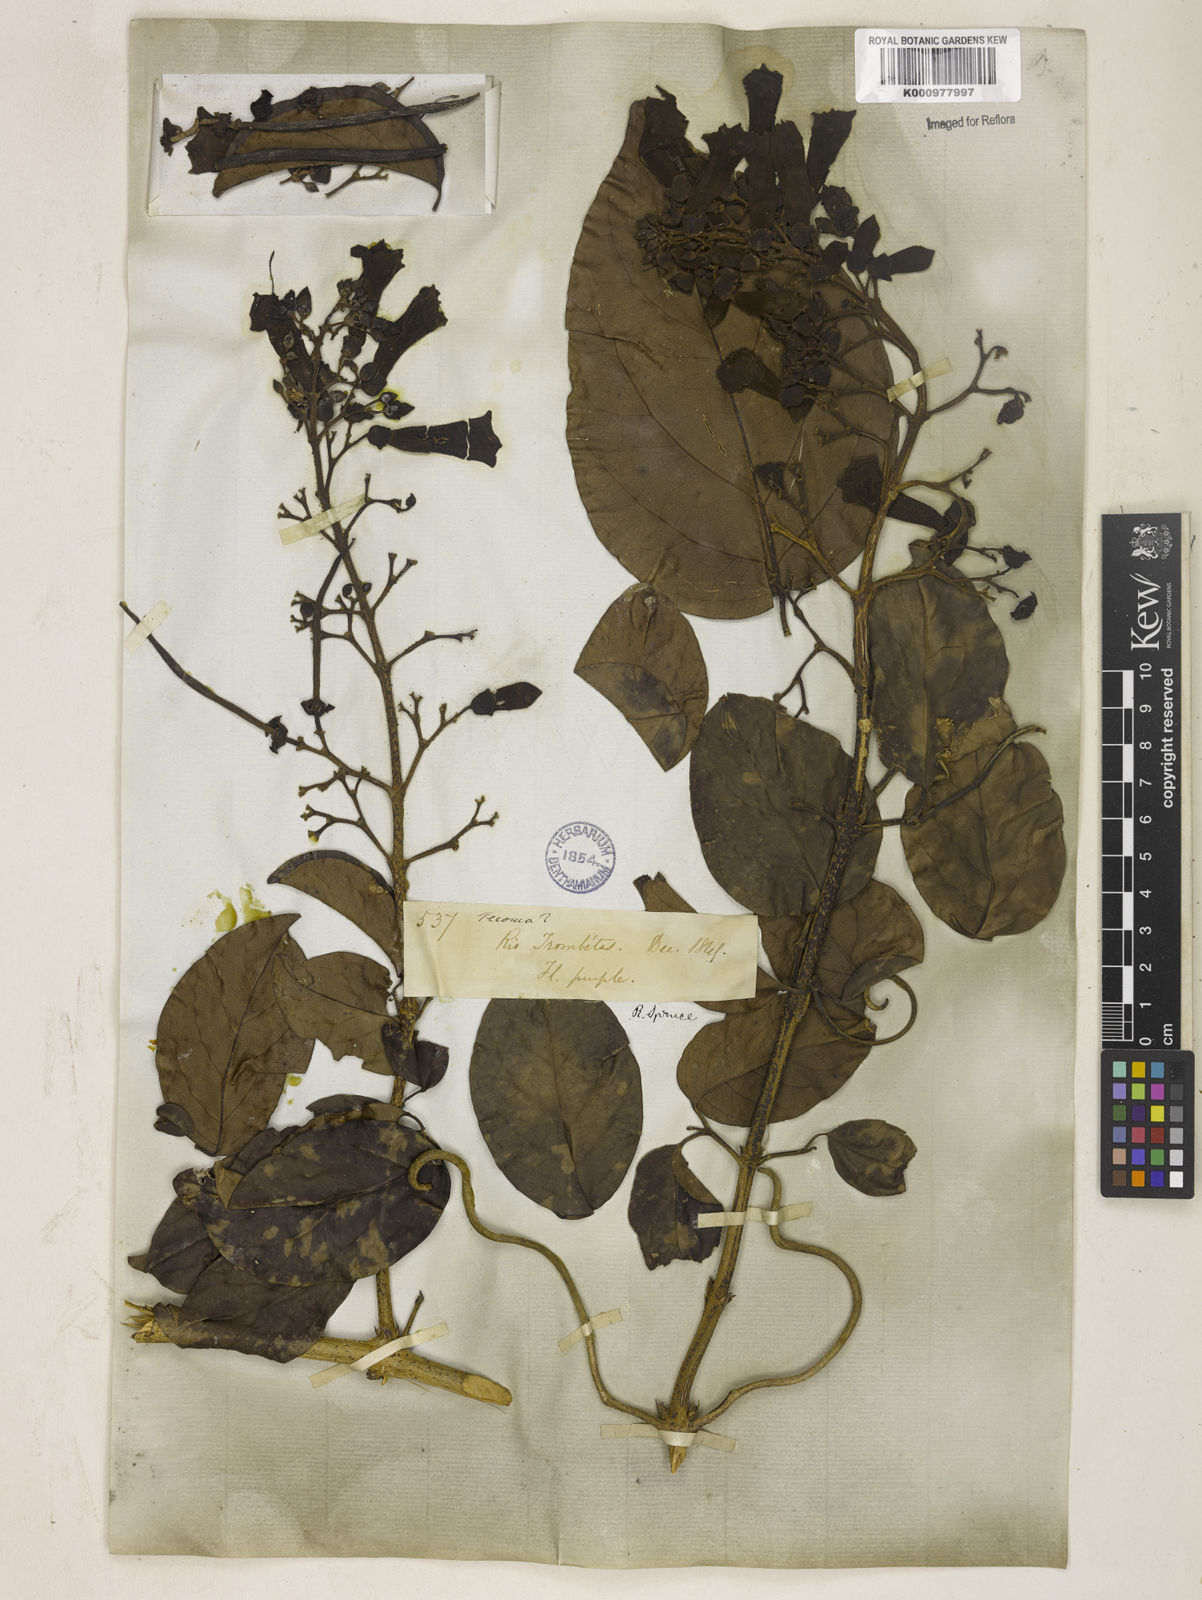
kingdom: Plantae
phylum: Tracheophyta
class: Magnoliopsida
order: Lamiales
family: Bignoniaceae
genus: Tanaecium
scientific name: Tanaecium pyramidatum
